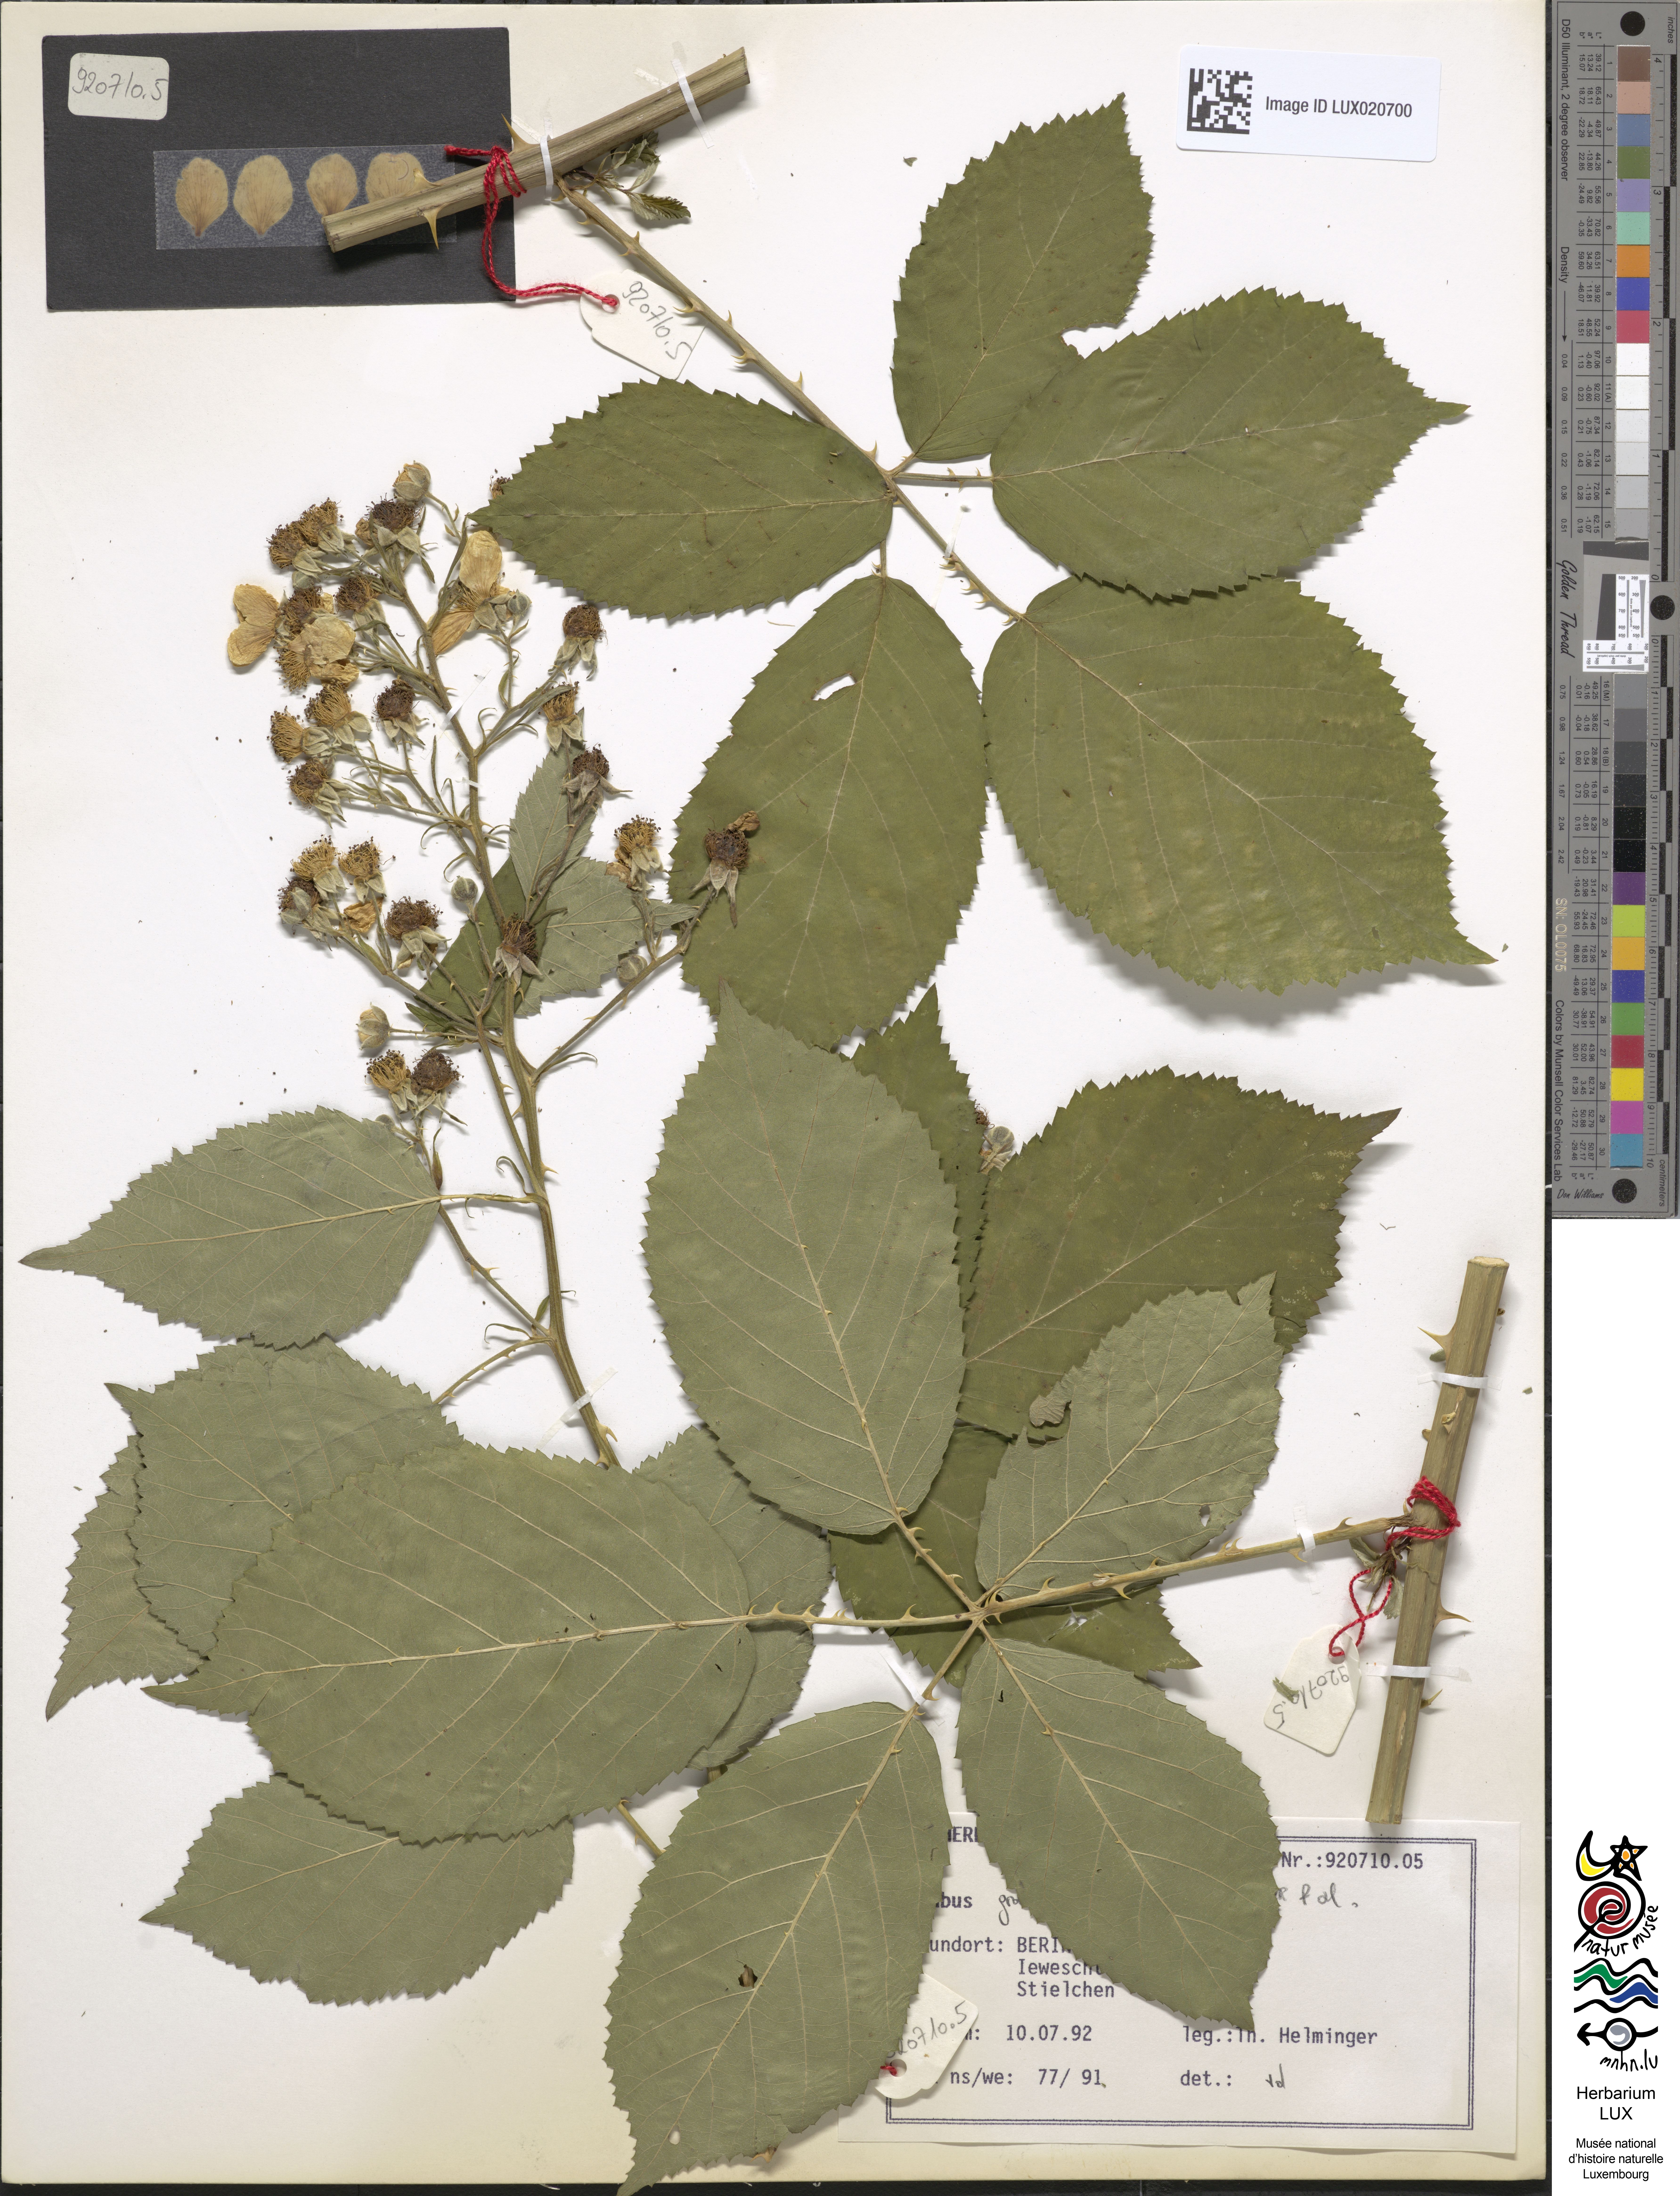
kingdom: Plantae
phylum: Tracheophyta
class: Magnoliopsida
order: Rosales
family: Rosaceae
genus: Rubus
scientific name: Rubus grabowskii
